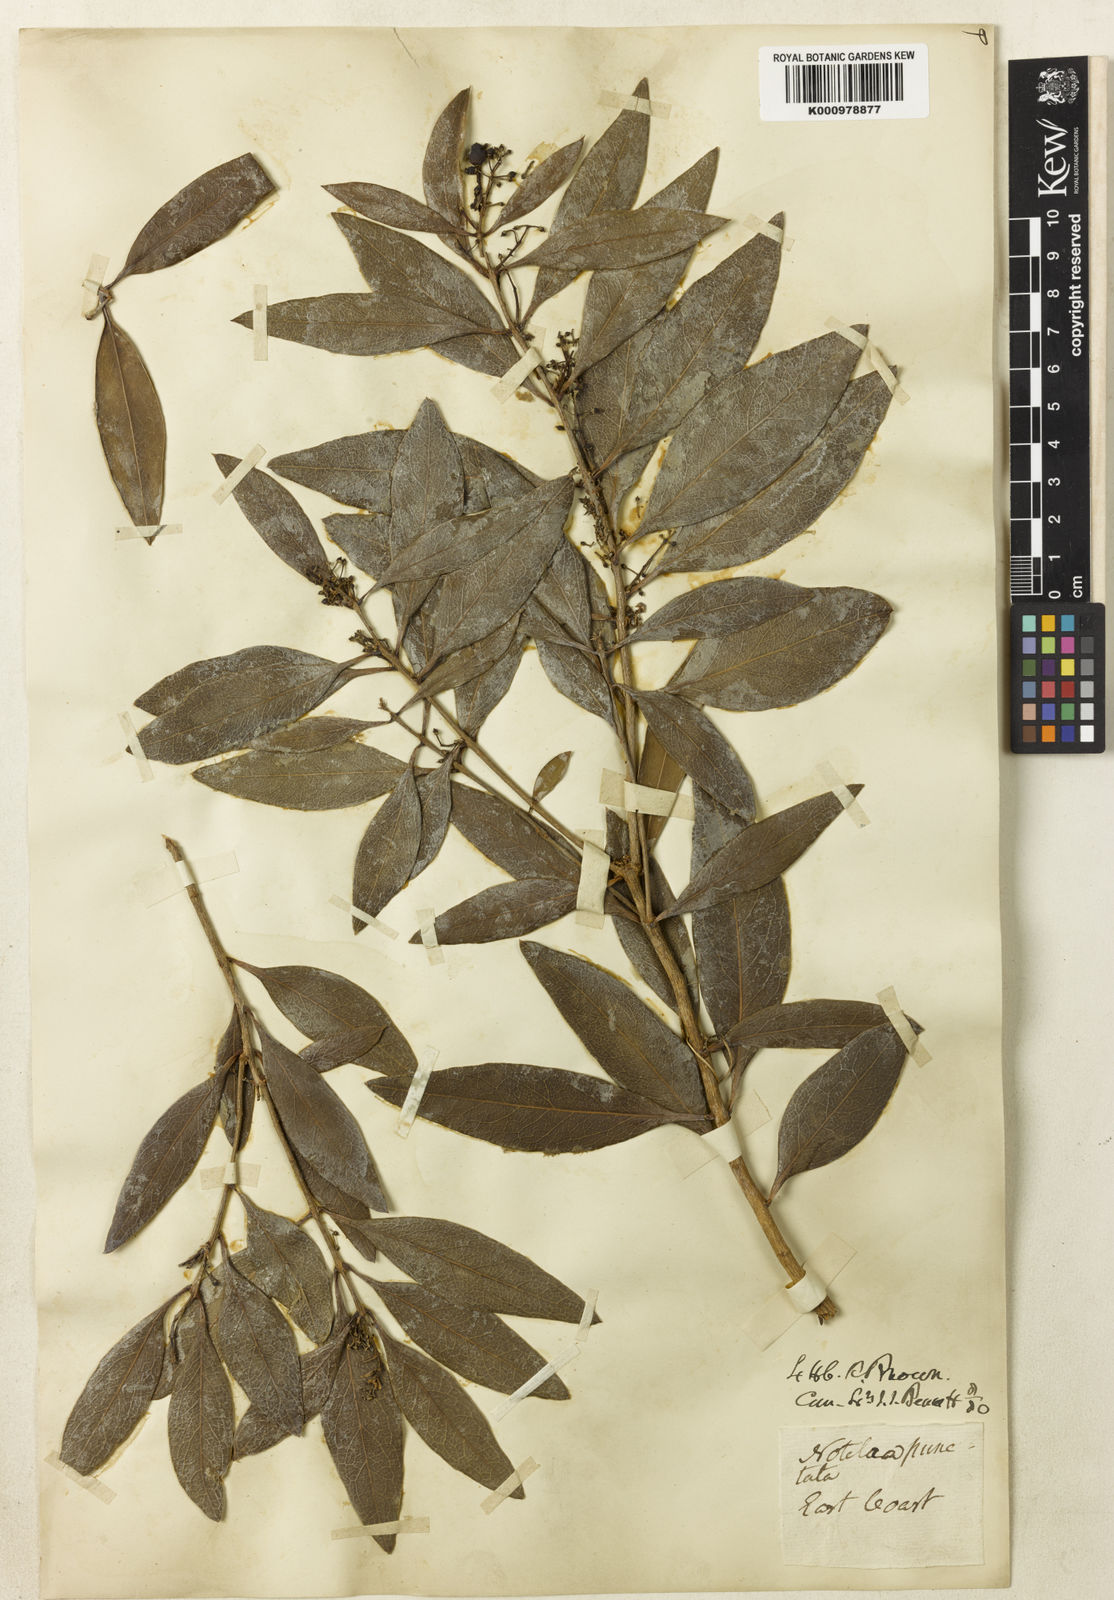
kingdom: Plantae
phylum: Tracheophyta
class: Magnoliopsida
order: Lamiales
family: Oleaceae
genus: Notelaea
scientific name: Notelaea punctata
